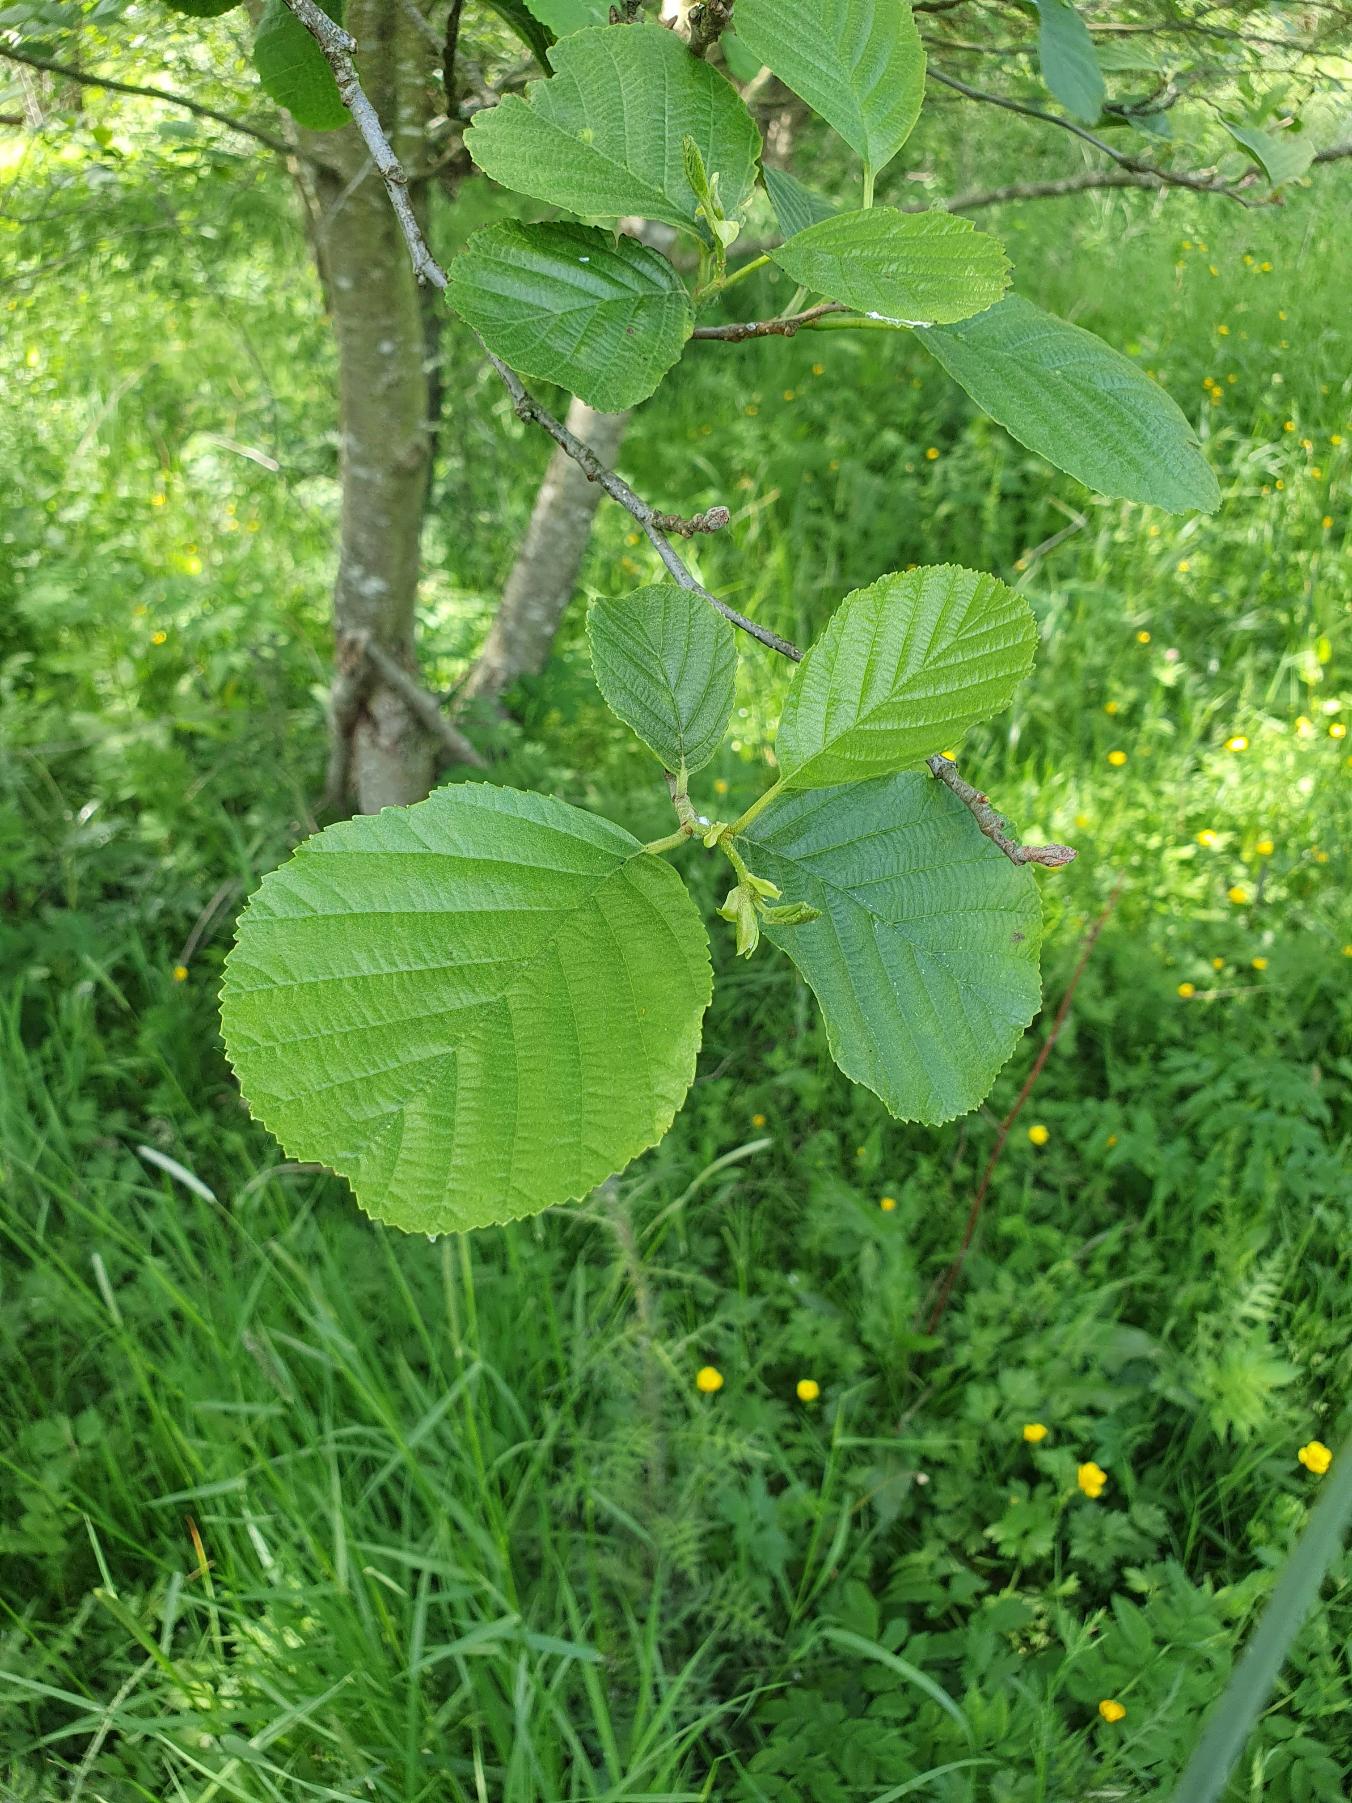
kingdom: Plantae
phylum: Tracheophyta
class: Magnoliopsida
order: Fagales
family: Betulaceae
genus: Alnus
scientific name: Alnus glutinosa
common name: Rød-el
